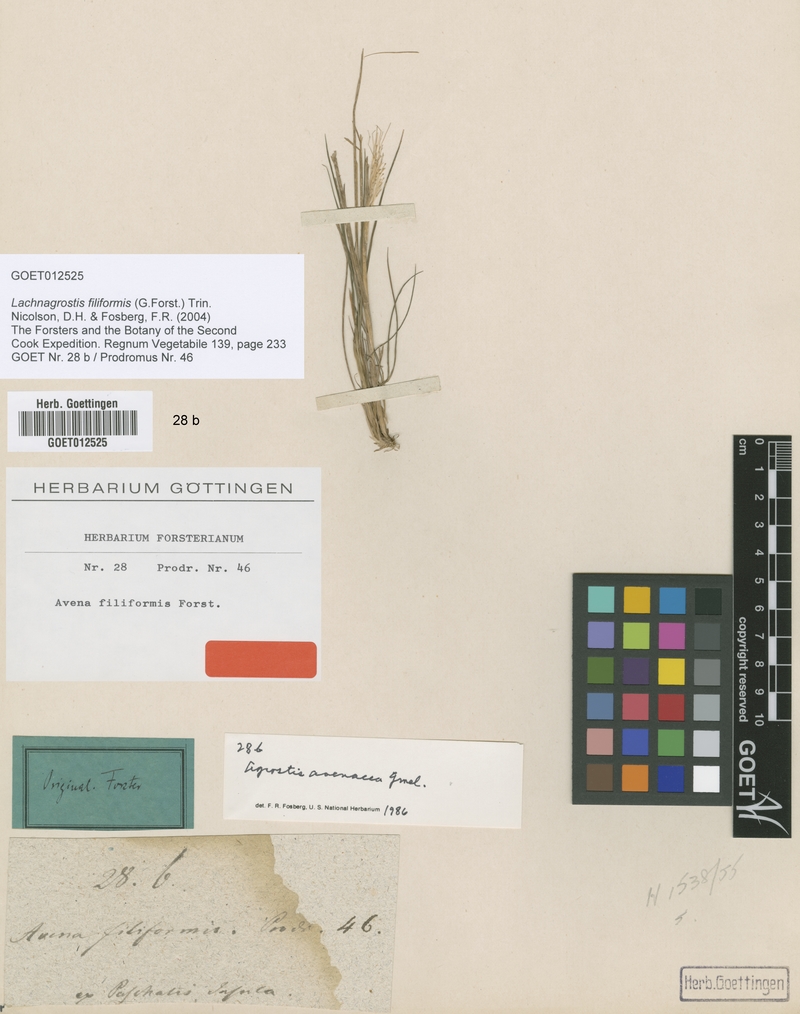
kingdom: Plantae
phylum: Tracheophyta
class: Liliopsida
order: Poales
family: Poaceae
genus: Lachnagrostis
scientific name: Lachnagrostis filiformis
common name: Bentgrass
